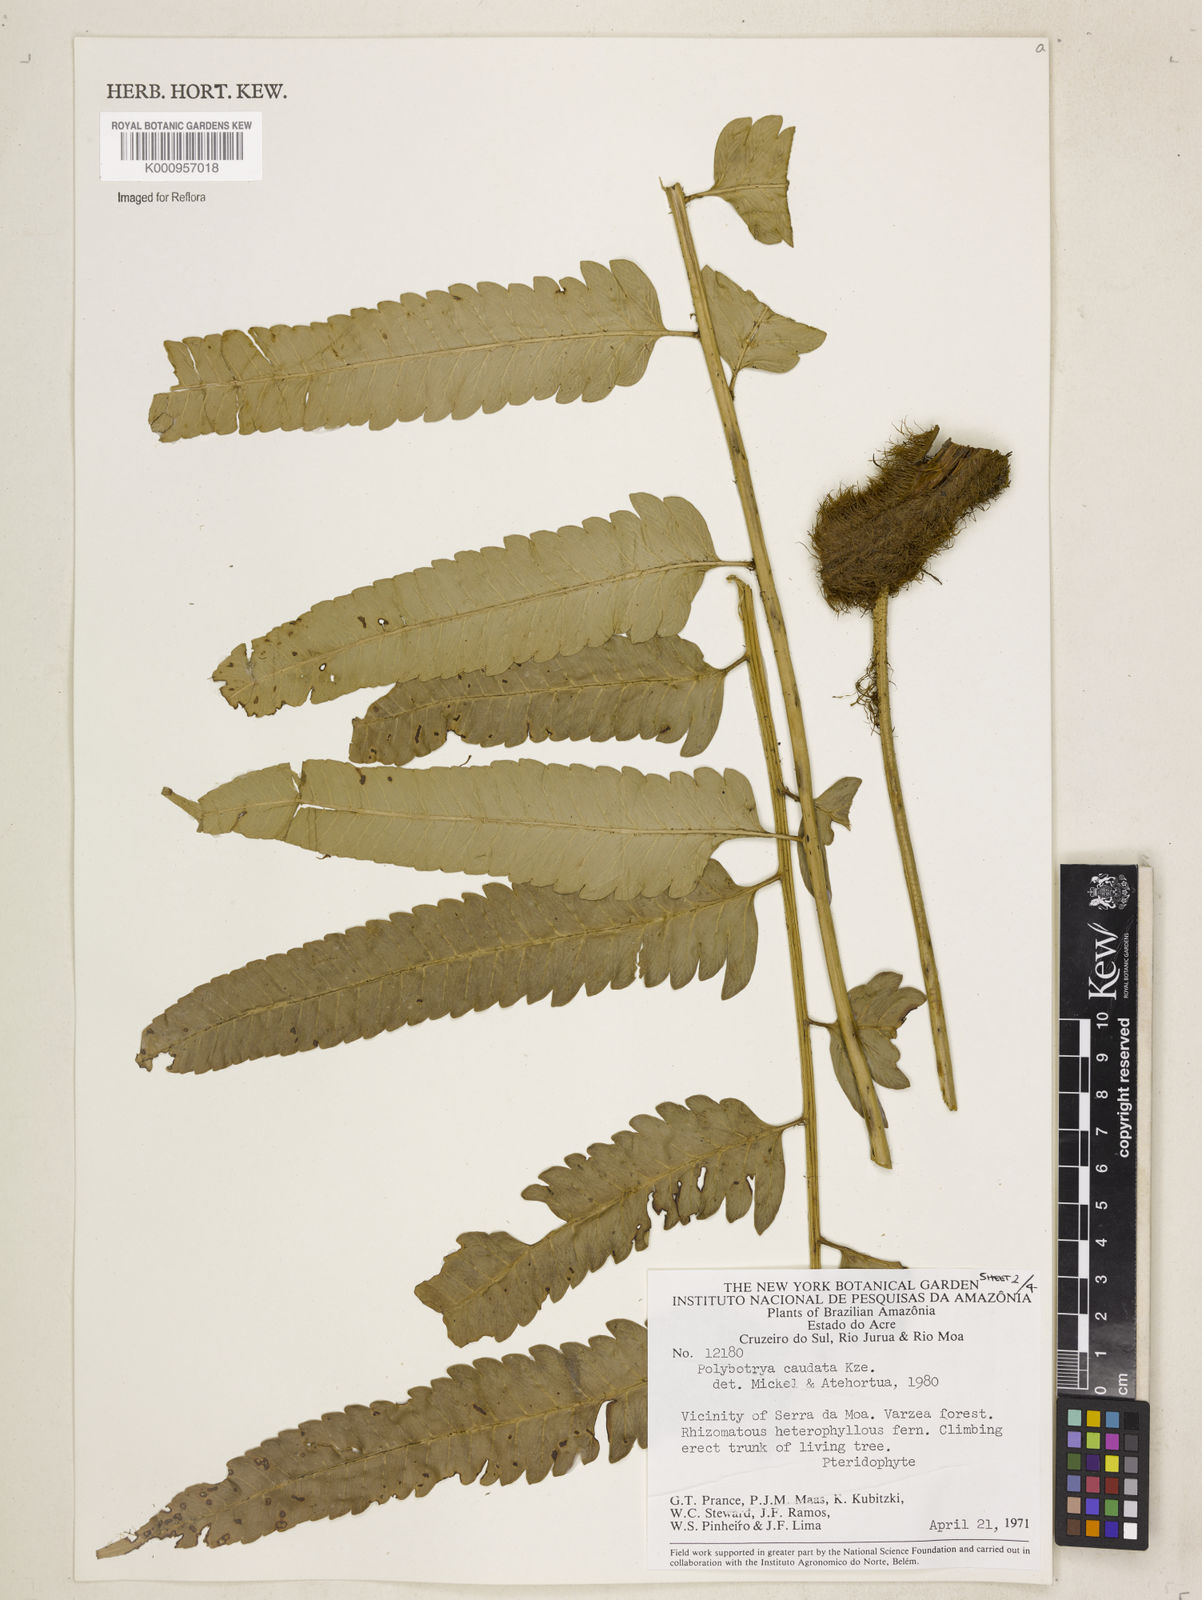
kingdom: Plantae
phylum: Tracheophyta
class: Polypodiopsida
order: Polypodiales
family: Dryopteridaceae
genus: Polybotrya
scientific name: Polybotrya caudata
